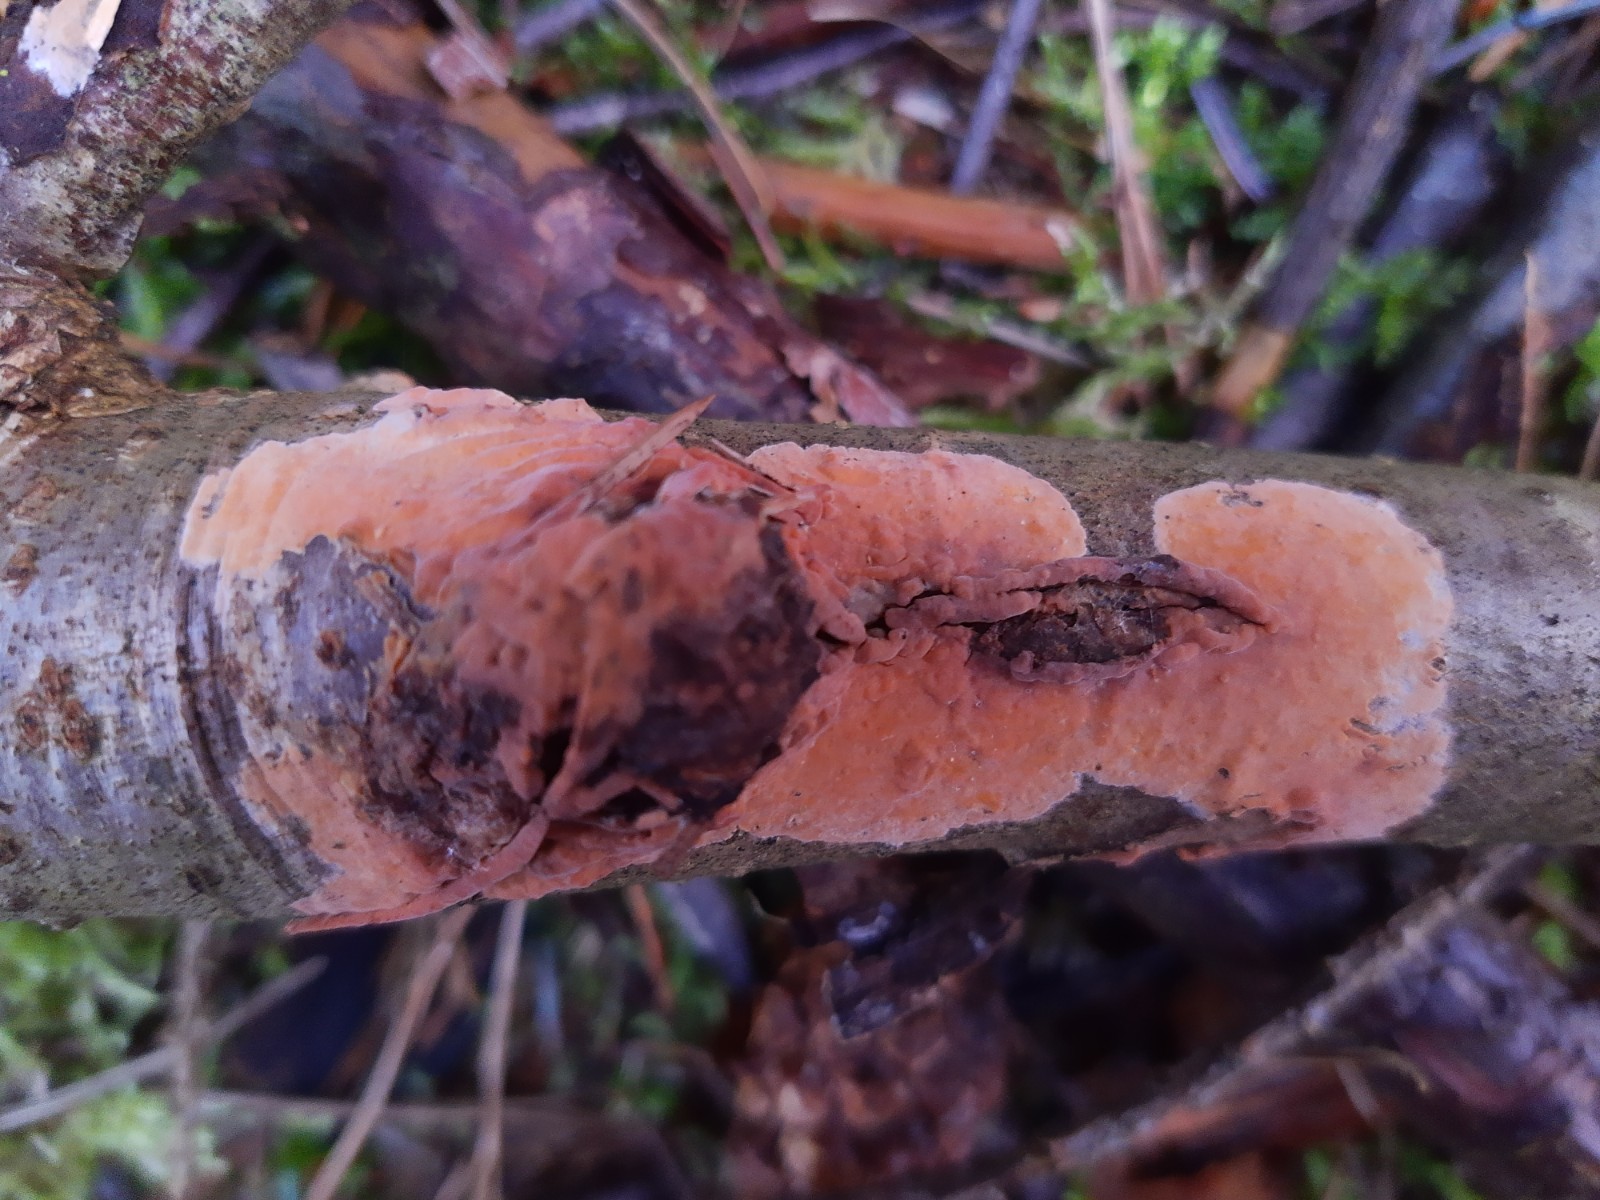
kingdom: Fungi
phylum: Basidiomycota
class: Agaricomycetes
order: Russulales
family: Peniophoraceae
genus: Peniophora
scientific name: Peniophora incarnata
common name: laksefarvet voksskind
